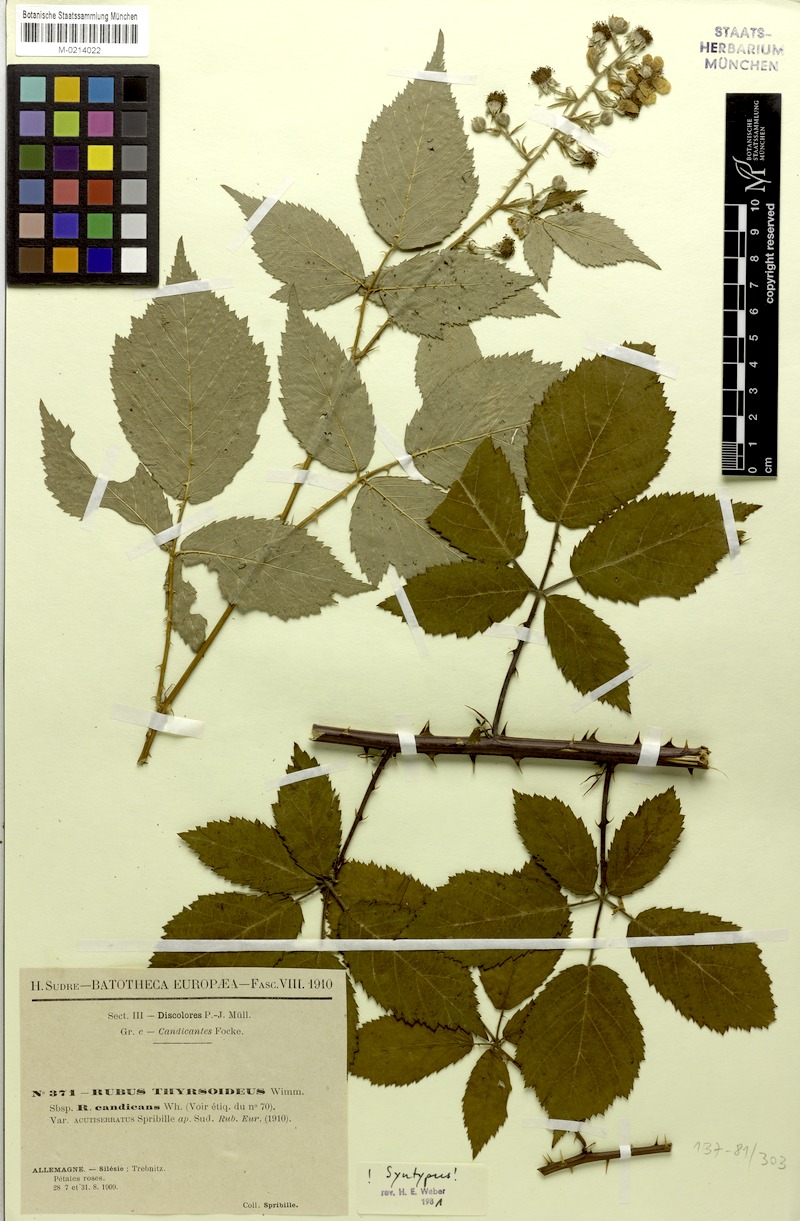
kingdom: Plantae
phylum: Tracheophyta
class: Magnoliopsida
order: Rosales
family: Rosaceae
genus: Rubus
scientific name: Rubus grabowskii
